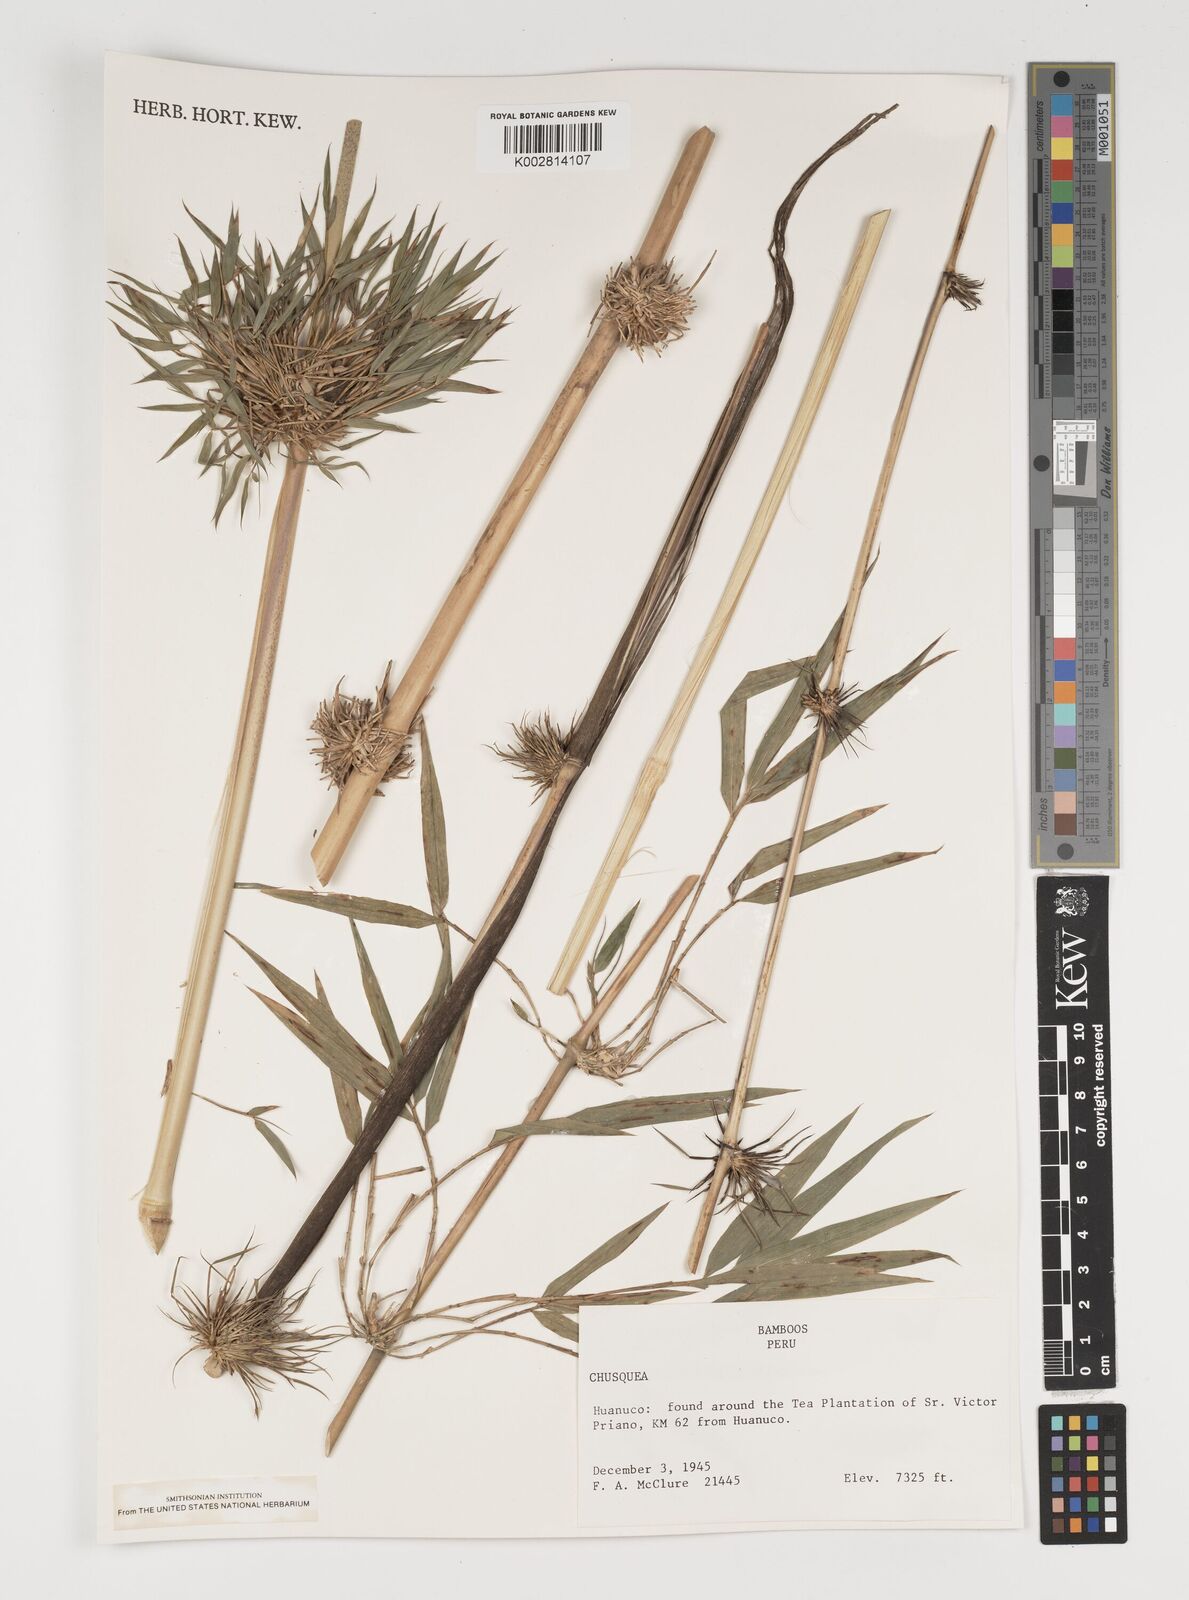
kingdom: Plantae
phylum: Tracheophyta
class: Liliopsida
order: Poales
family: Poaceae
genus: Chusquea
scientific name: Chusquea
